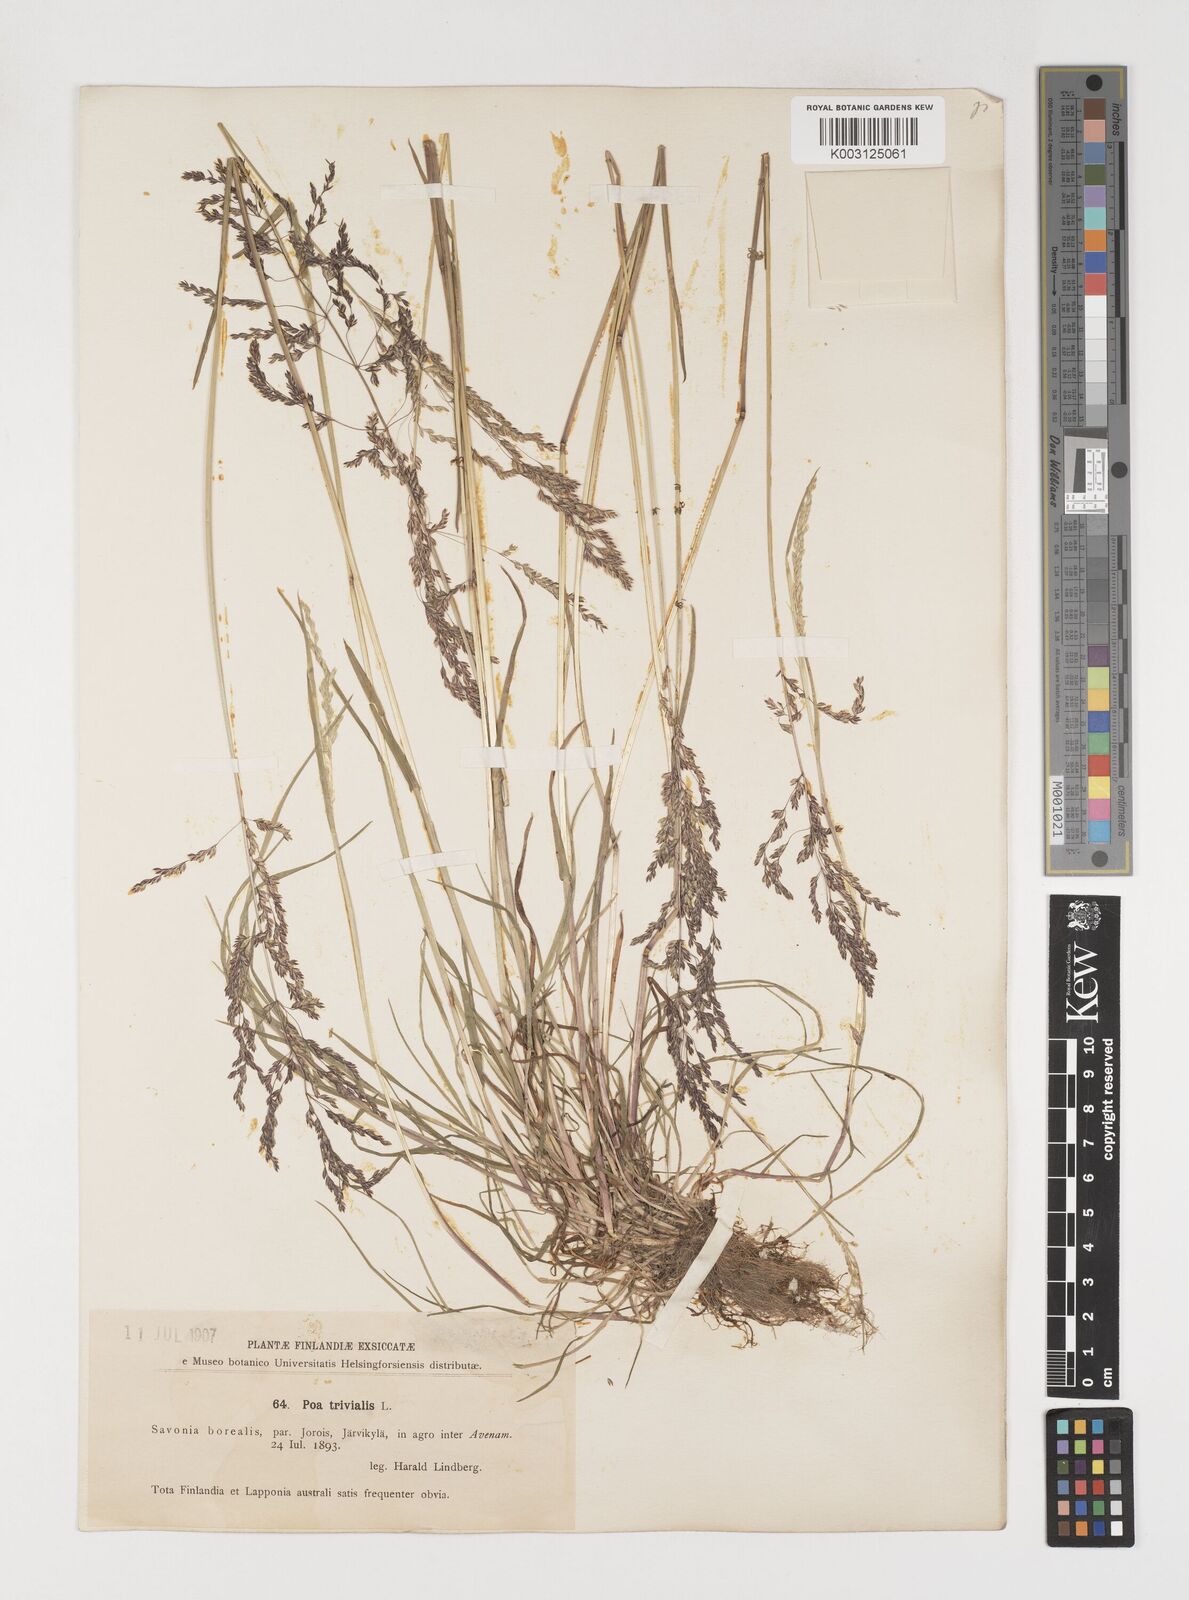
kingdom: Plantae
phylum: Tracheophyta
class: Liliopsida
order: Poales
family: Poaceae
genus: Poa
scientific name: Poa trivialis
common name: Rough bluegrass
